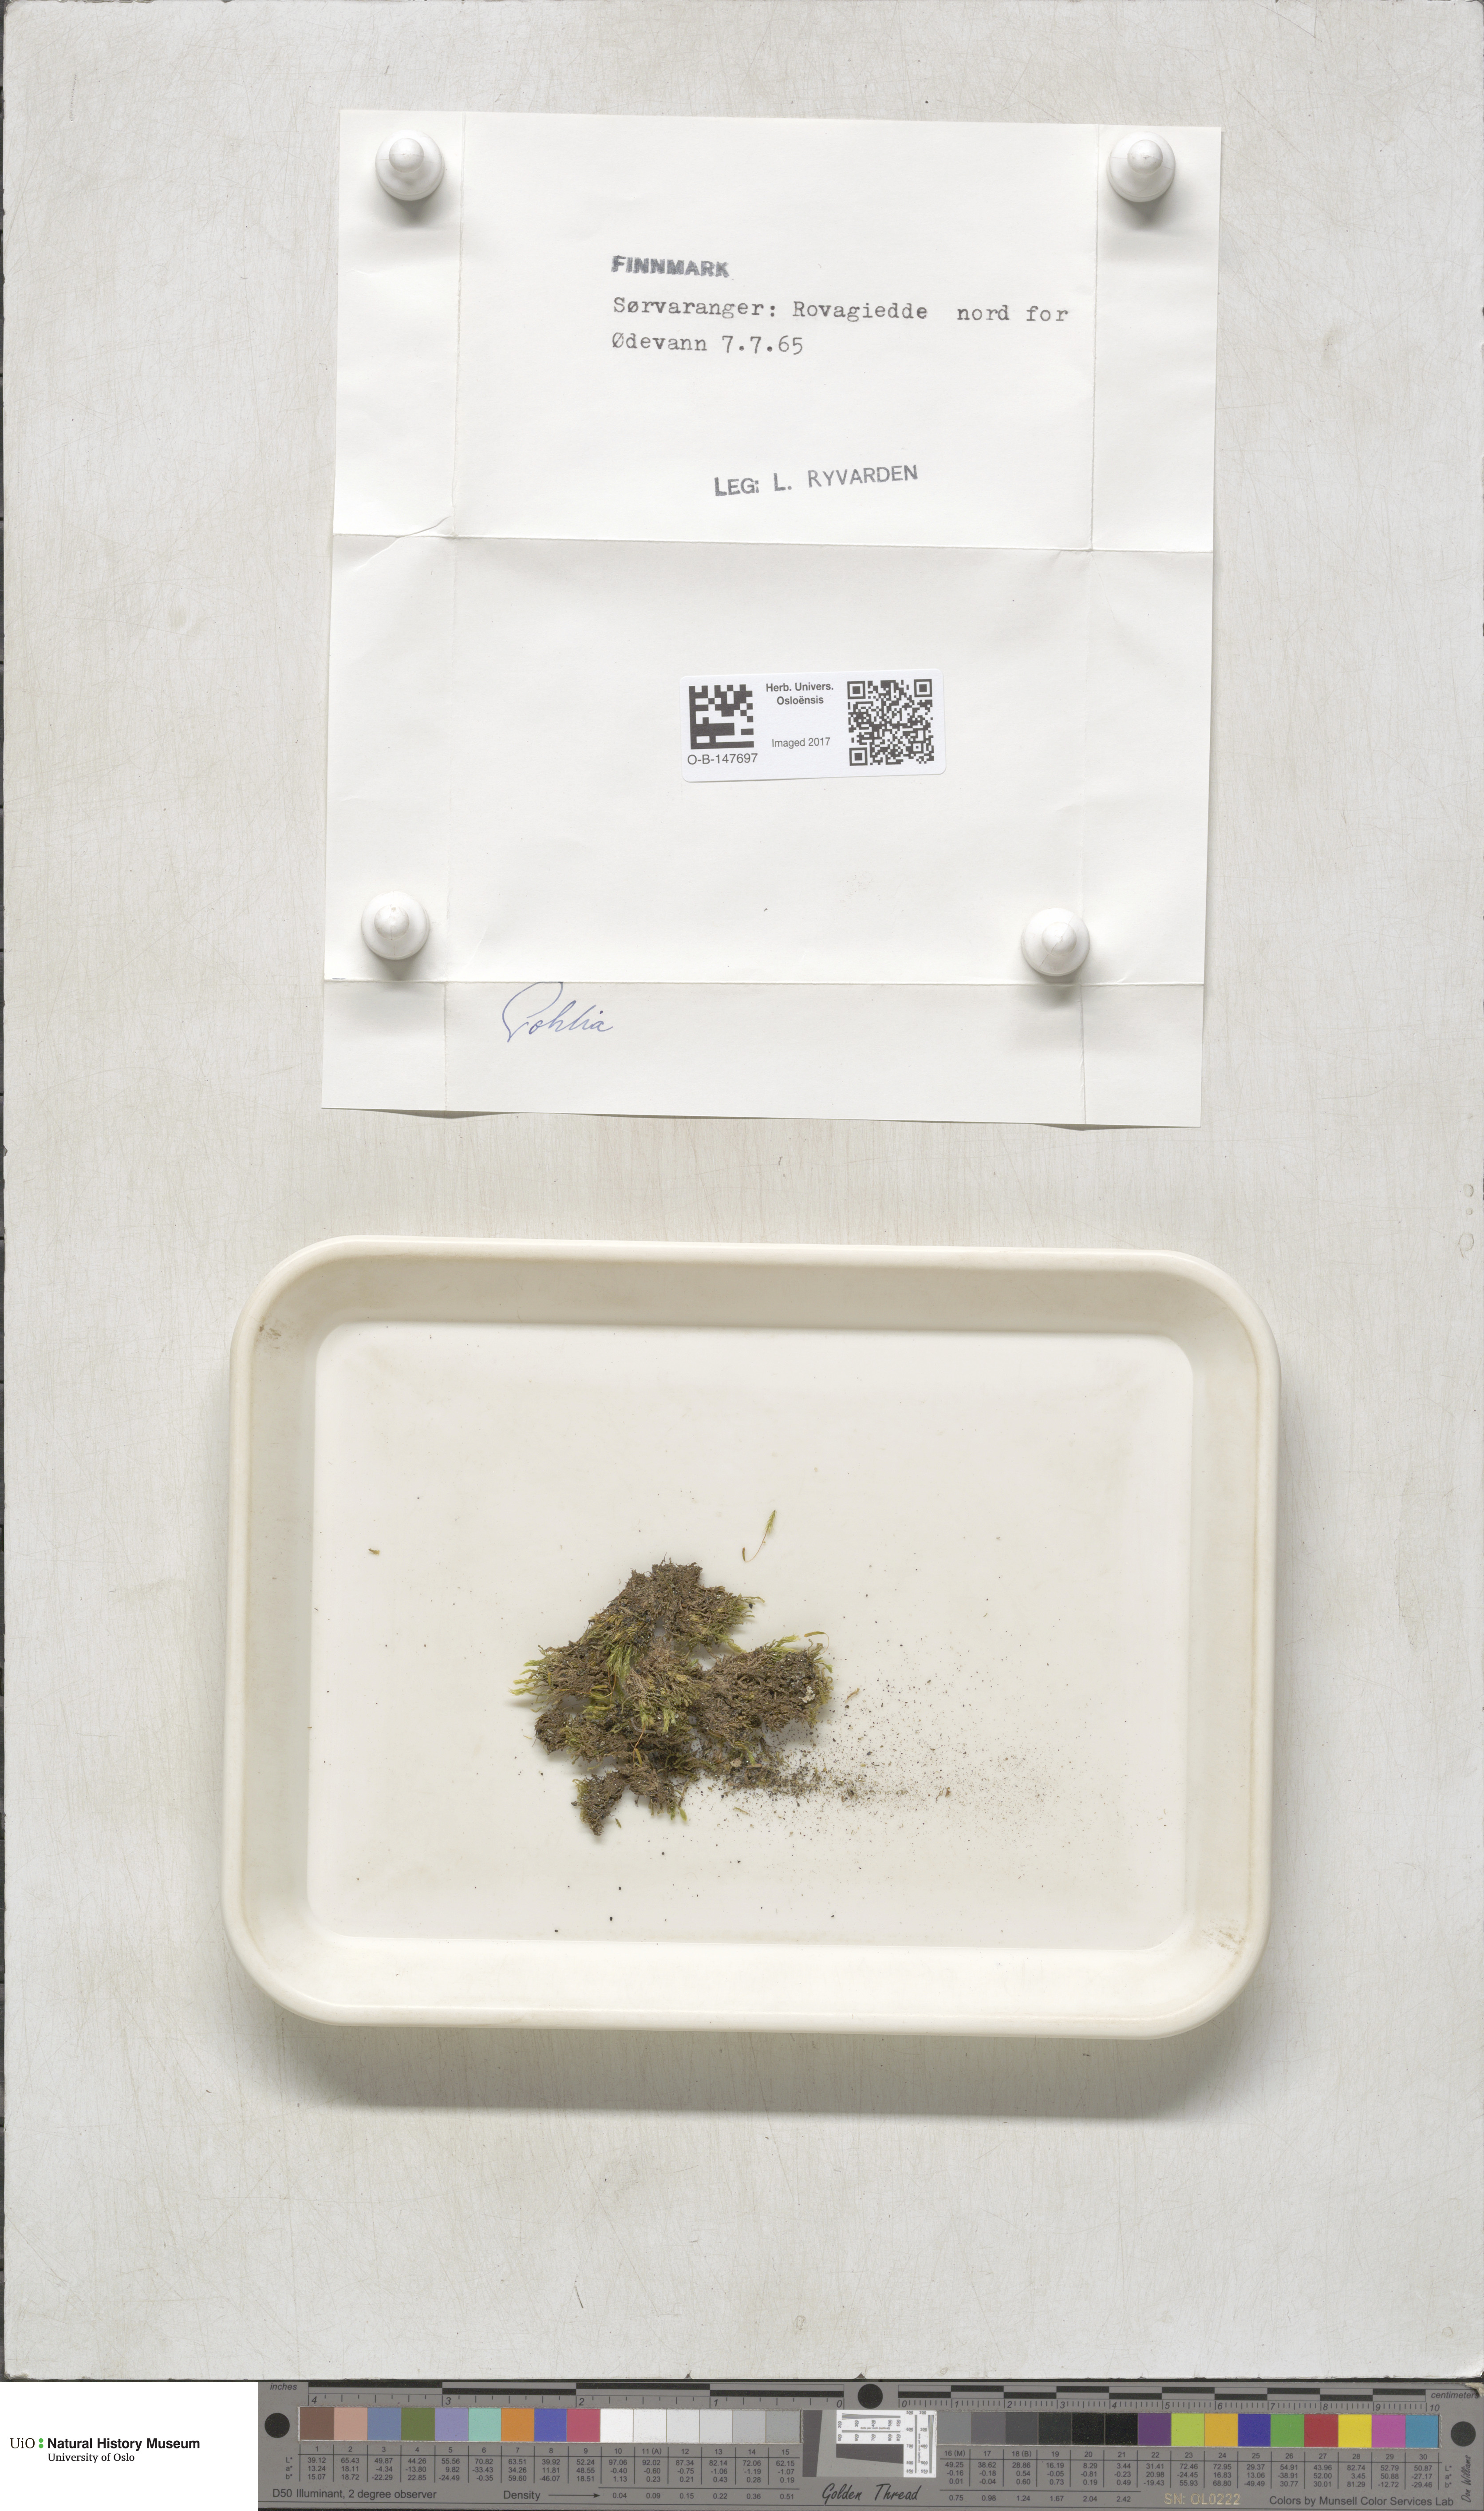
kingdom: Plantae
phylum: Bryophyta
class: Bryopsida
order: Bryales
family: Mniaceae
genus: Pohlia
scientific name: Pohlia
